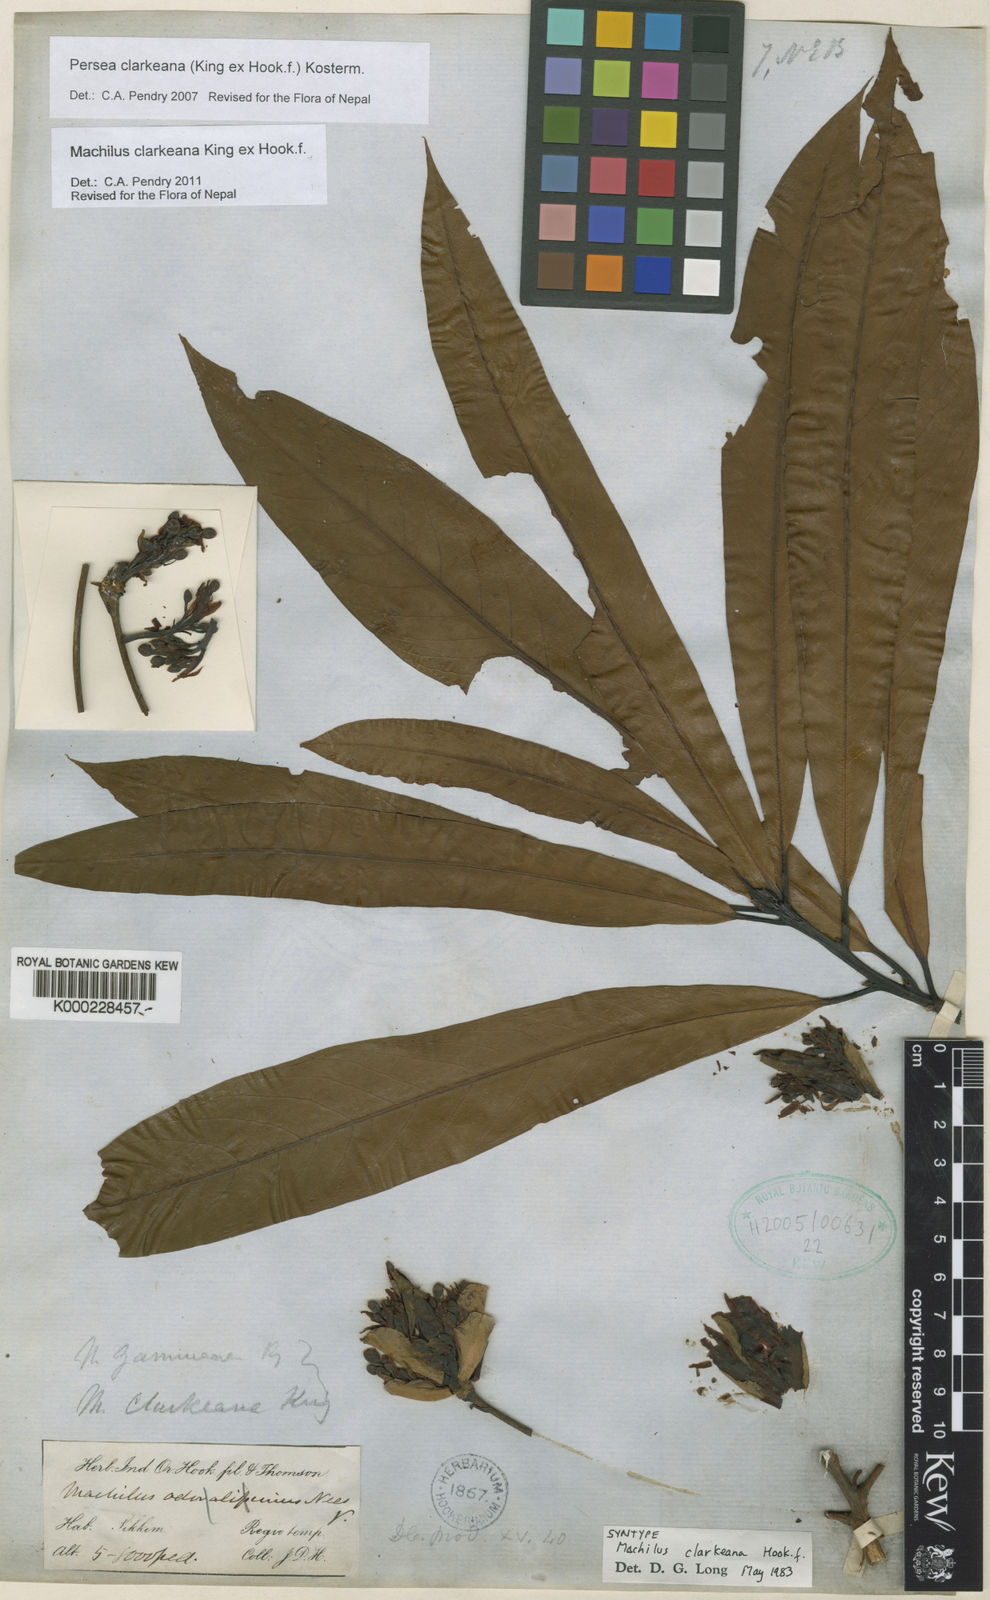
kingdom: Plantae
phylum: Tracheophyta
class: Magnoliopsida
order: Laurales
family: Lauraceae
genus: Machilus
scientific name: Machilus clarkeana
